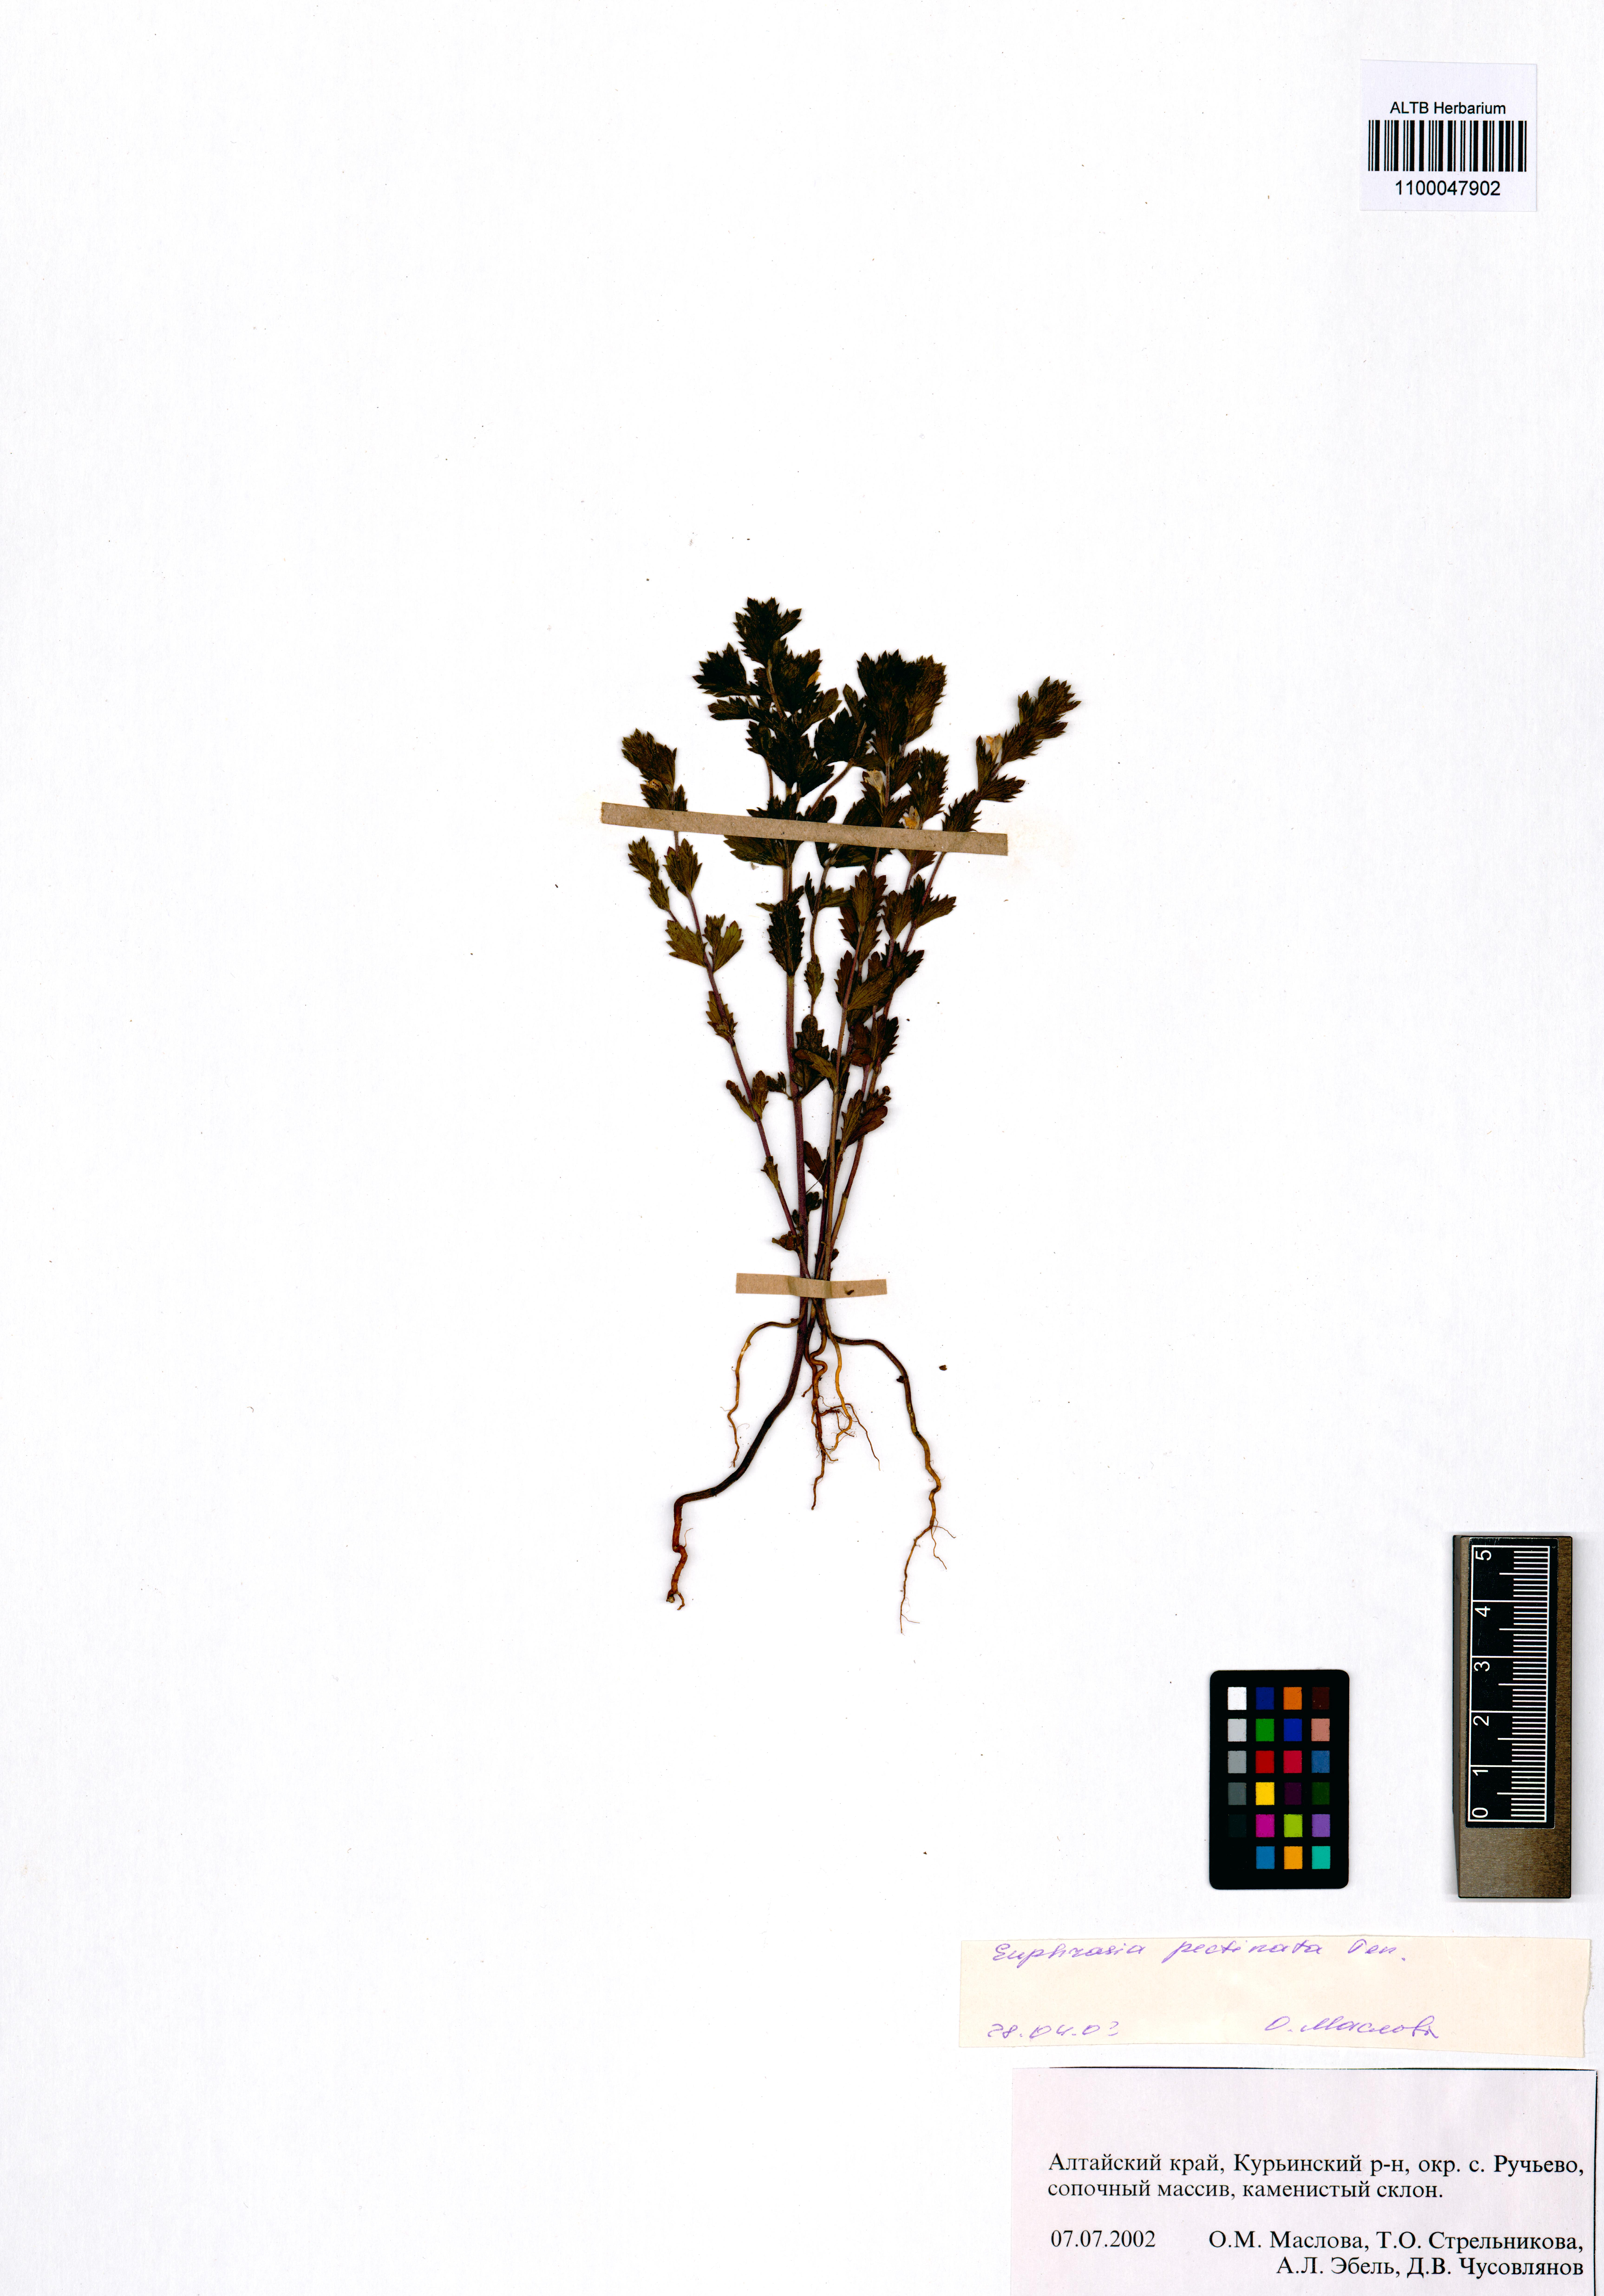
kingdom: Plantae
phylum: Tracheophyta
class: Magnoliopsida
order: Lamiales
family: Orobanchaceae
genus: Euphrasia
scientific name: Euphrasia pectinata
